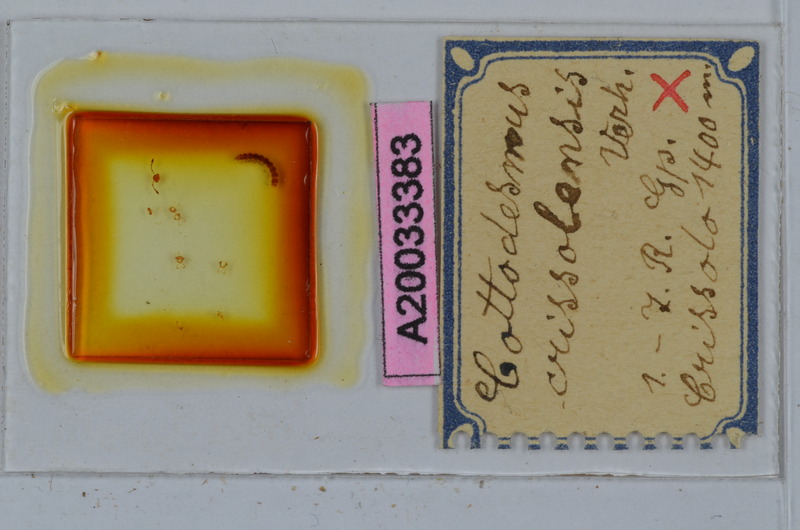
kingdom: Animalia
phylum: Arthropoda
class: Diplopoda
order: Polydesmida
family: Trichopolydesmidae
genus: Cottodesmus
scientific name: Cottodesmus crissolensis
